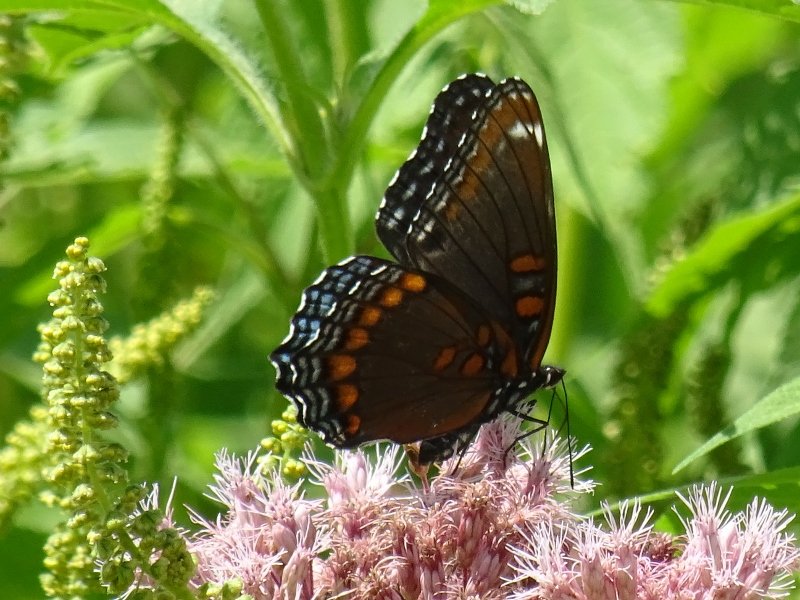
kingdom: Animalia
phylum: Arthropoda
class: Insecta
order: Lepidoptera
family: Nymphalidae
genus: Limenitis
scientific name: Limenitis astyanax
